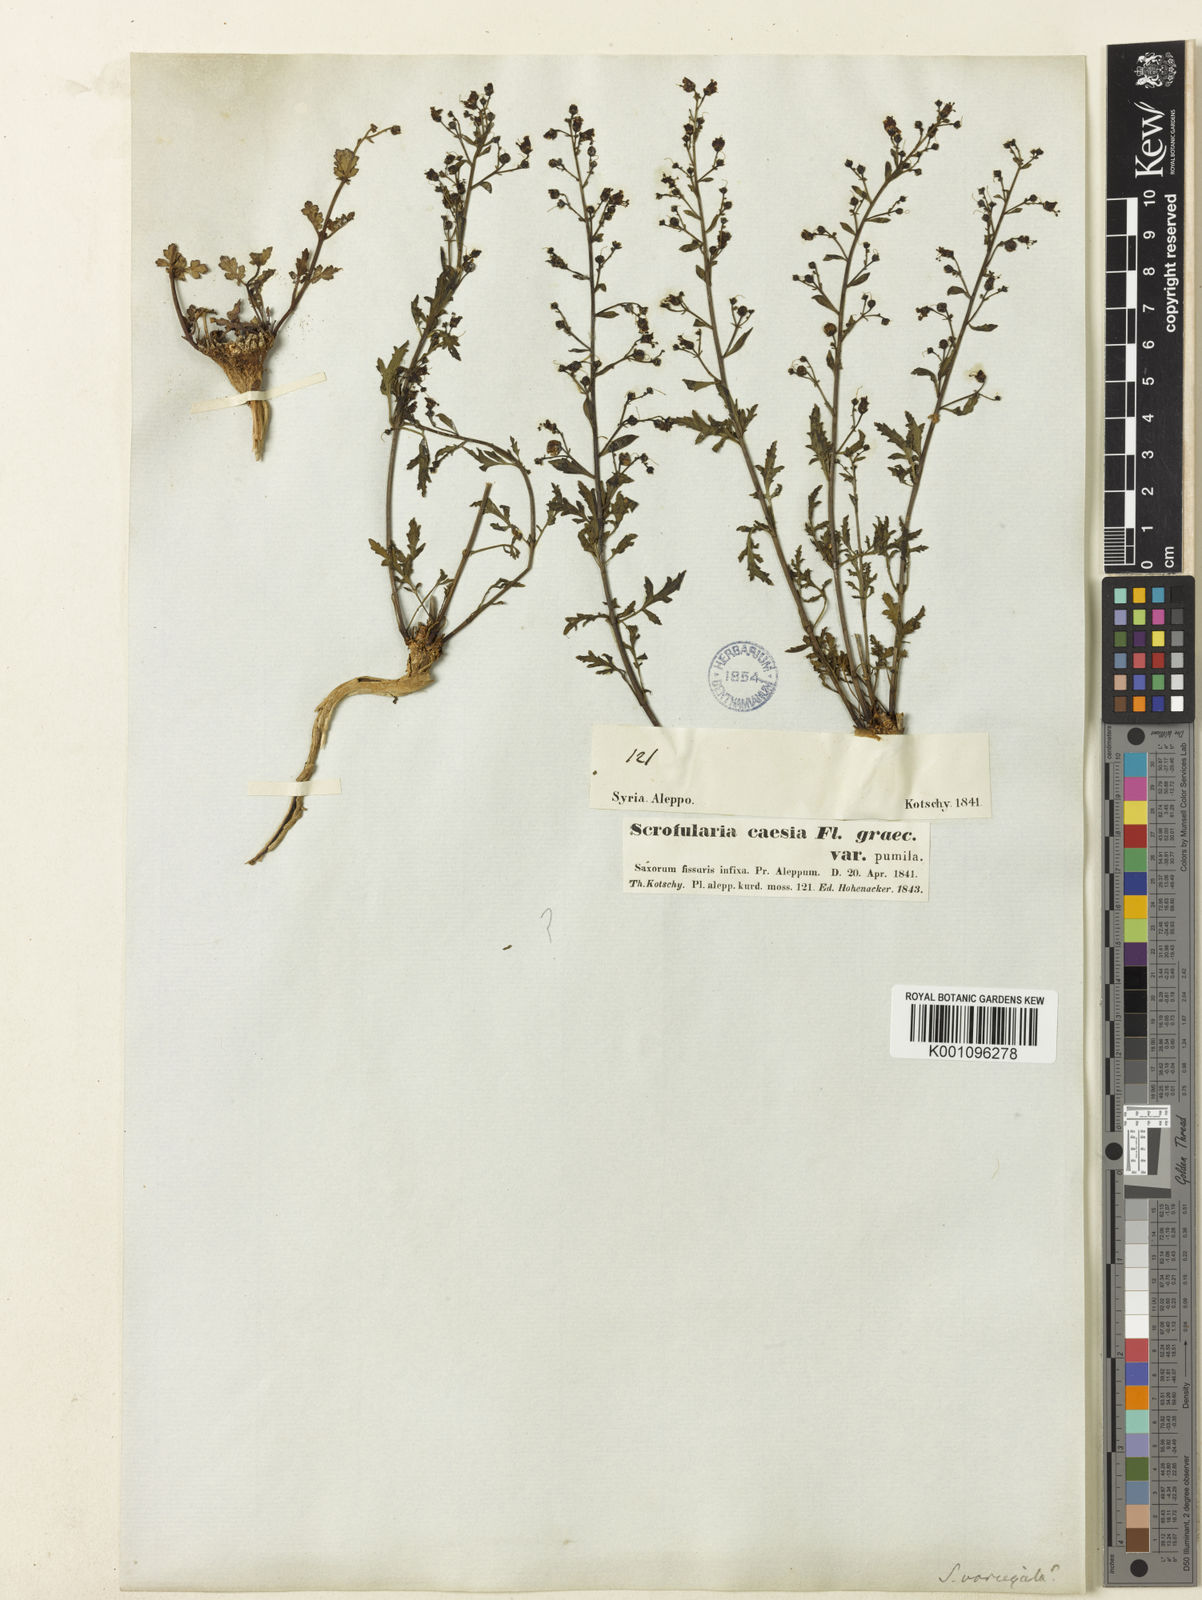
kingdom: Plantae
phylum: Tracheophyta
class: Magnoliopsida
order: Lamiales
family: Scrophulariaceae
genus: Scrophularia
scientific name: Scrophularia variegata
